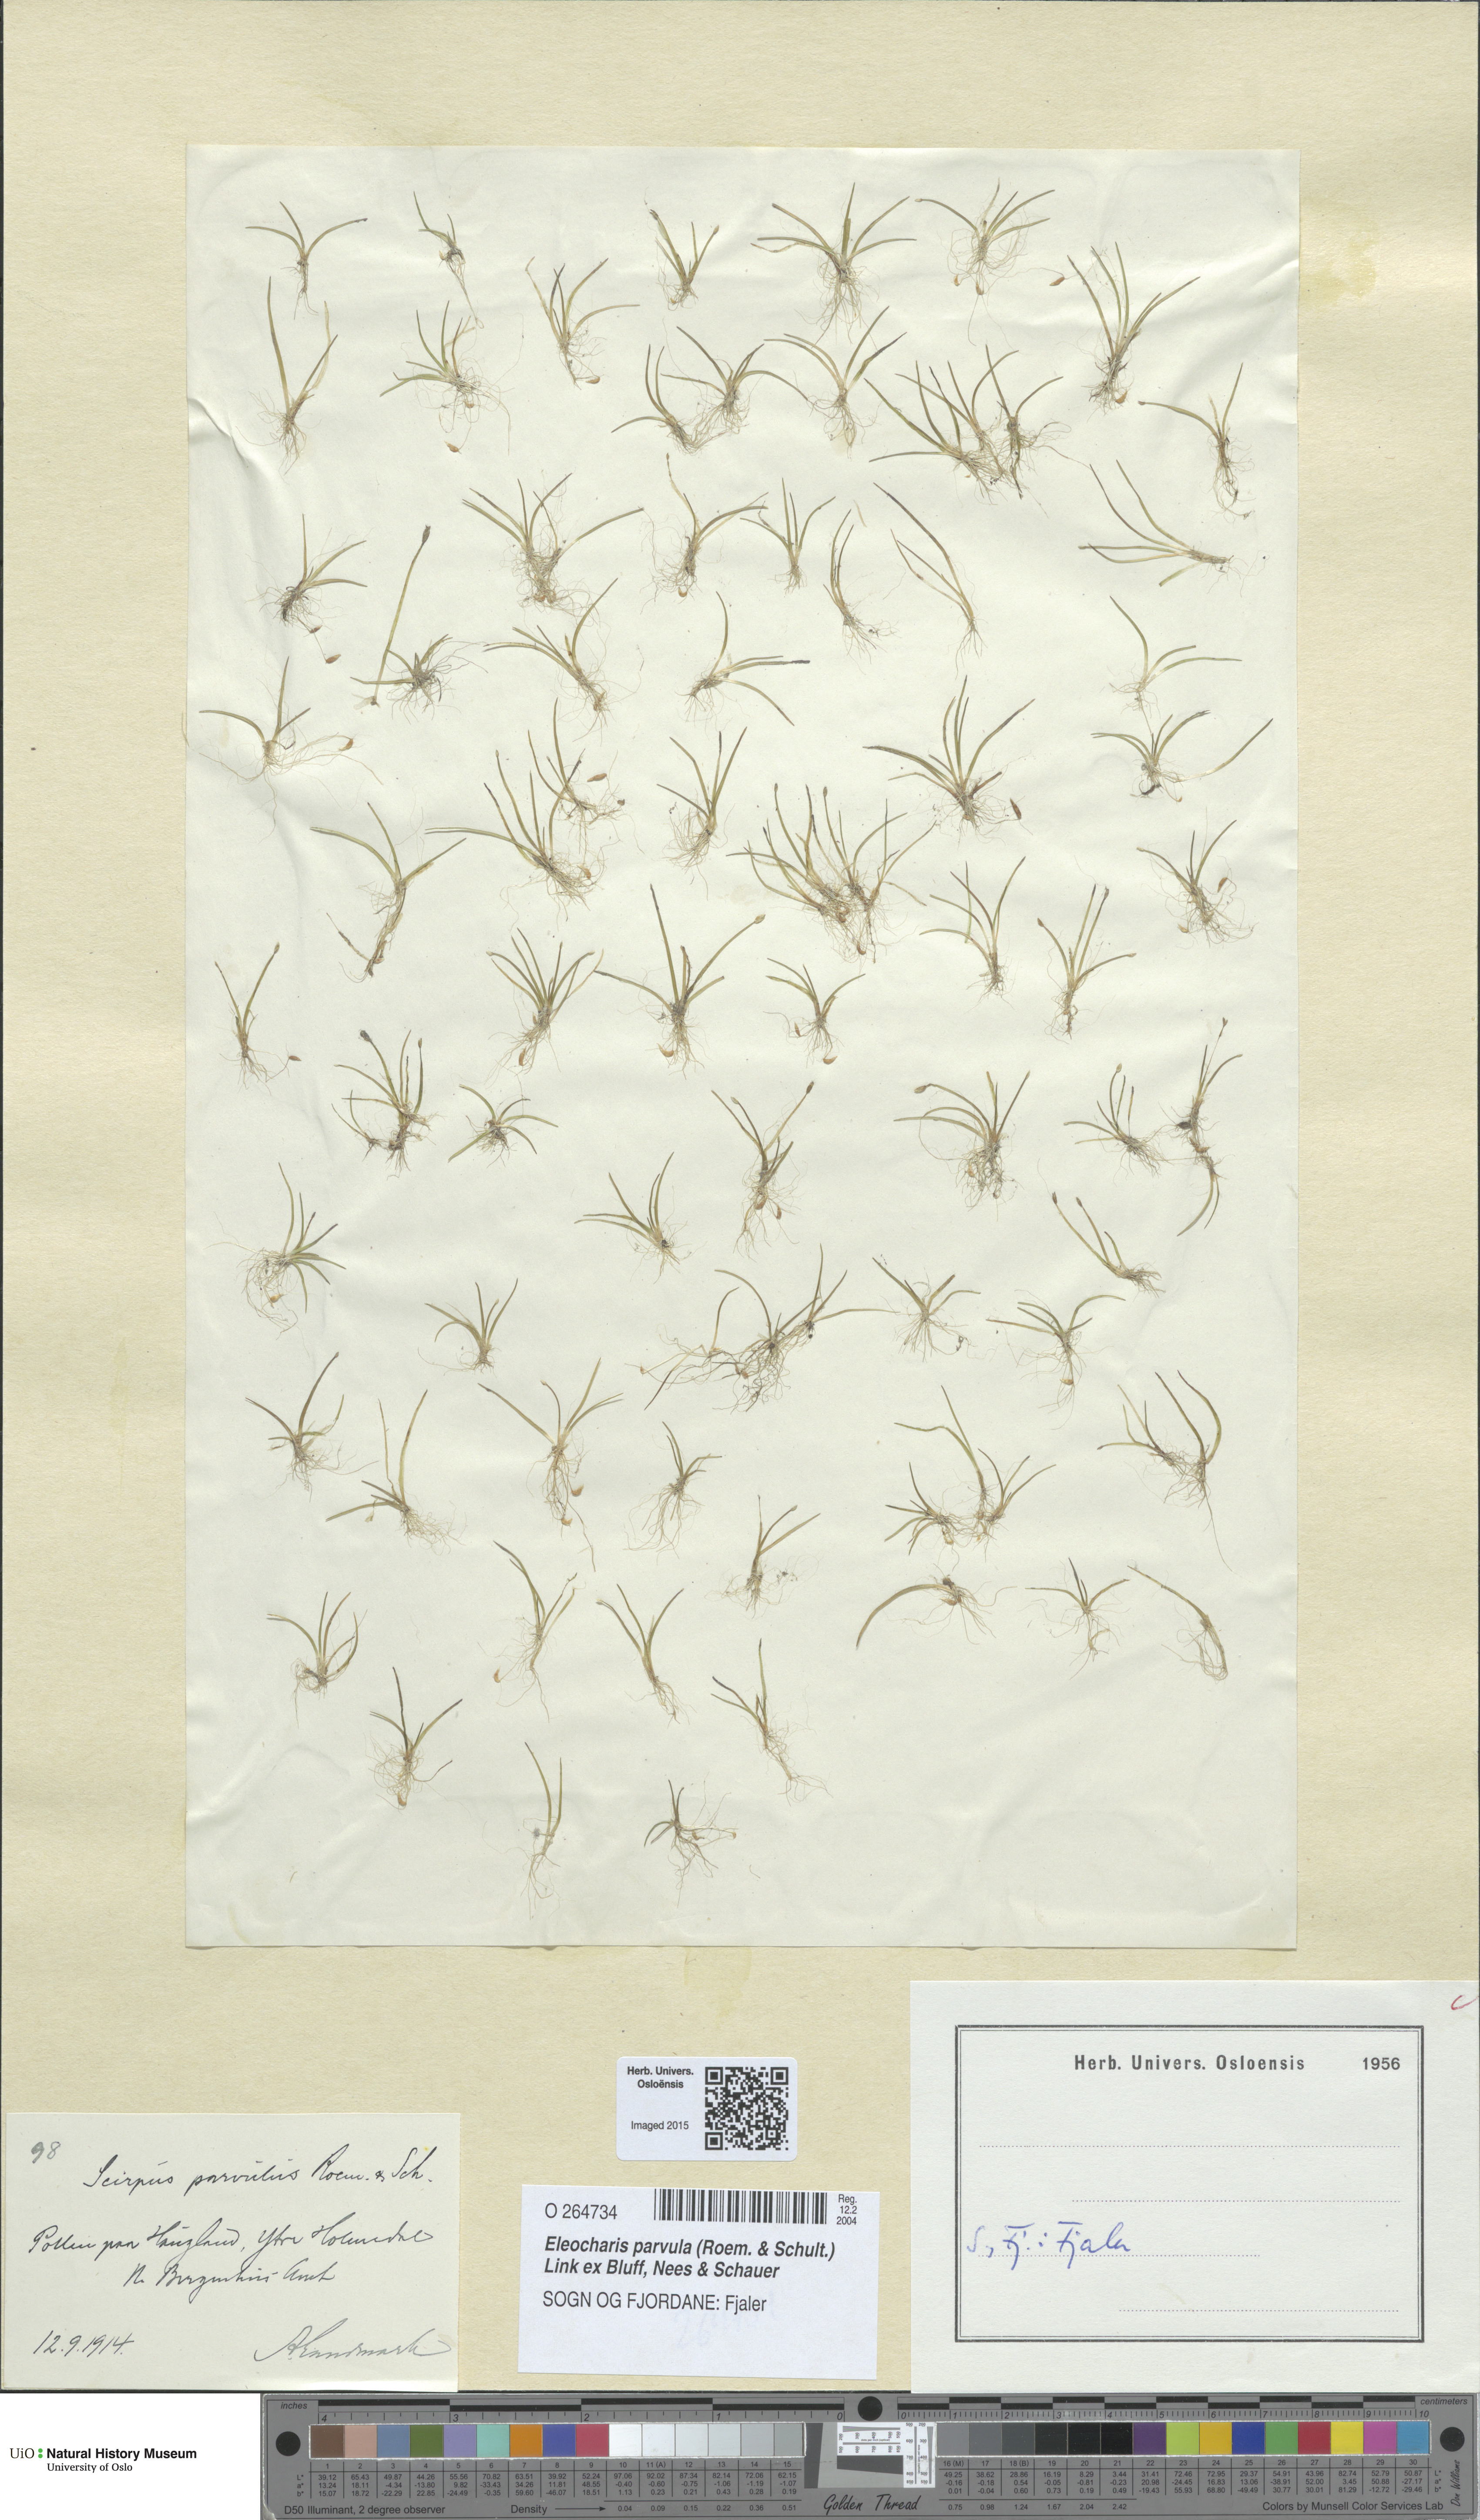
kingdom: Plantae
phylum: Tracheophyta
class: Liliopsida
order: Poales
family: Cyperaceae
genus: Eleocharis
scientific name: Eleocharis parvula
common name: Dwarf spike-rush
